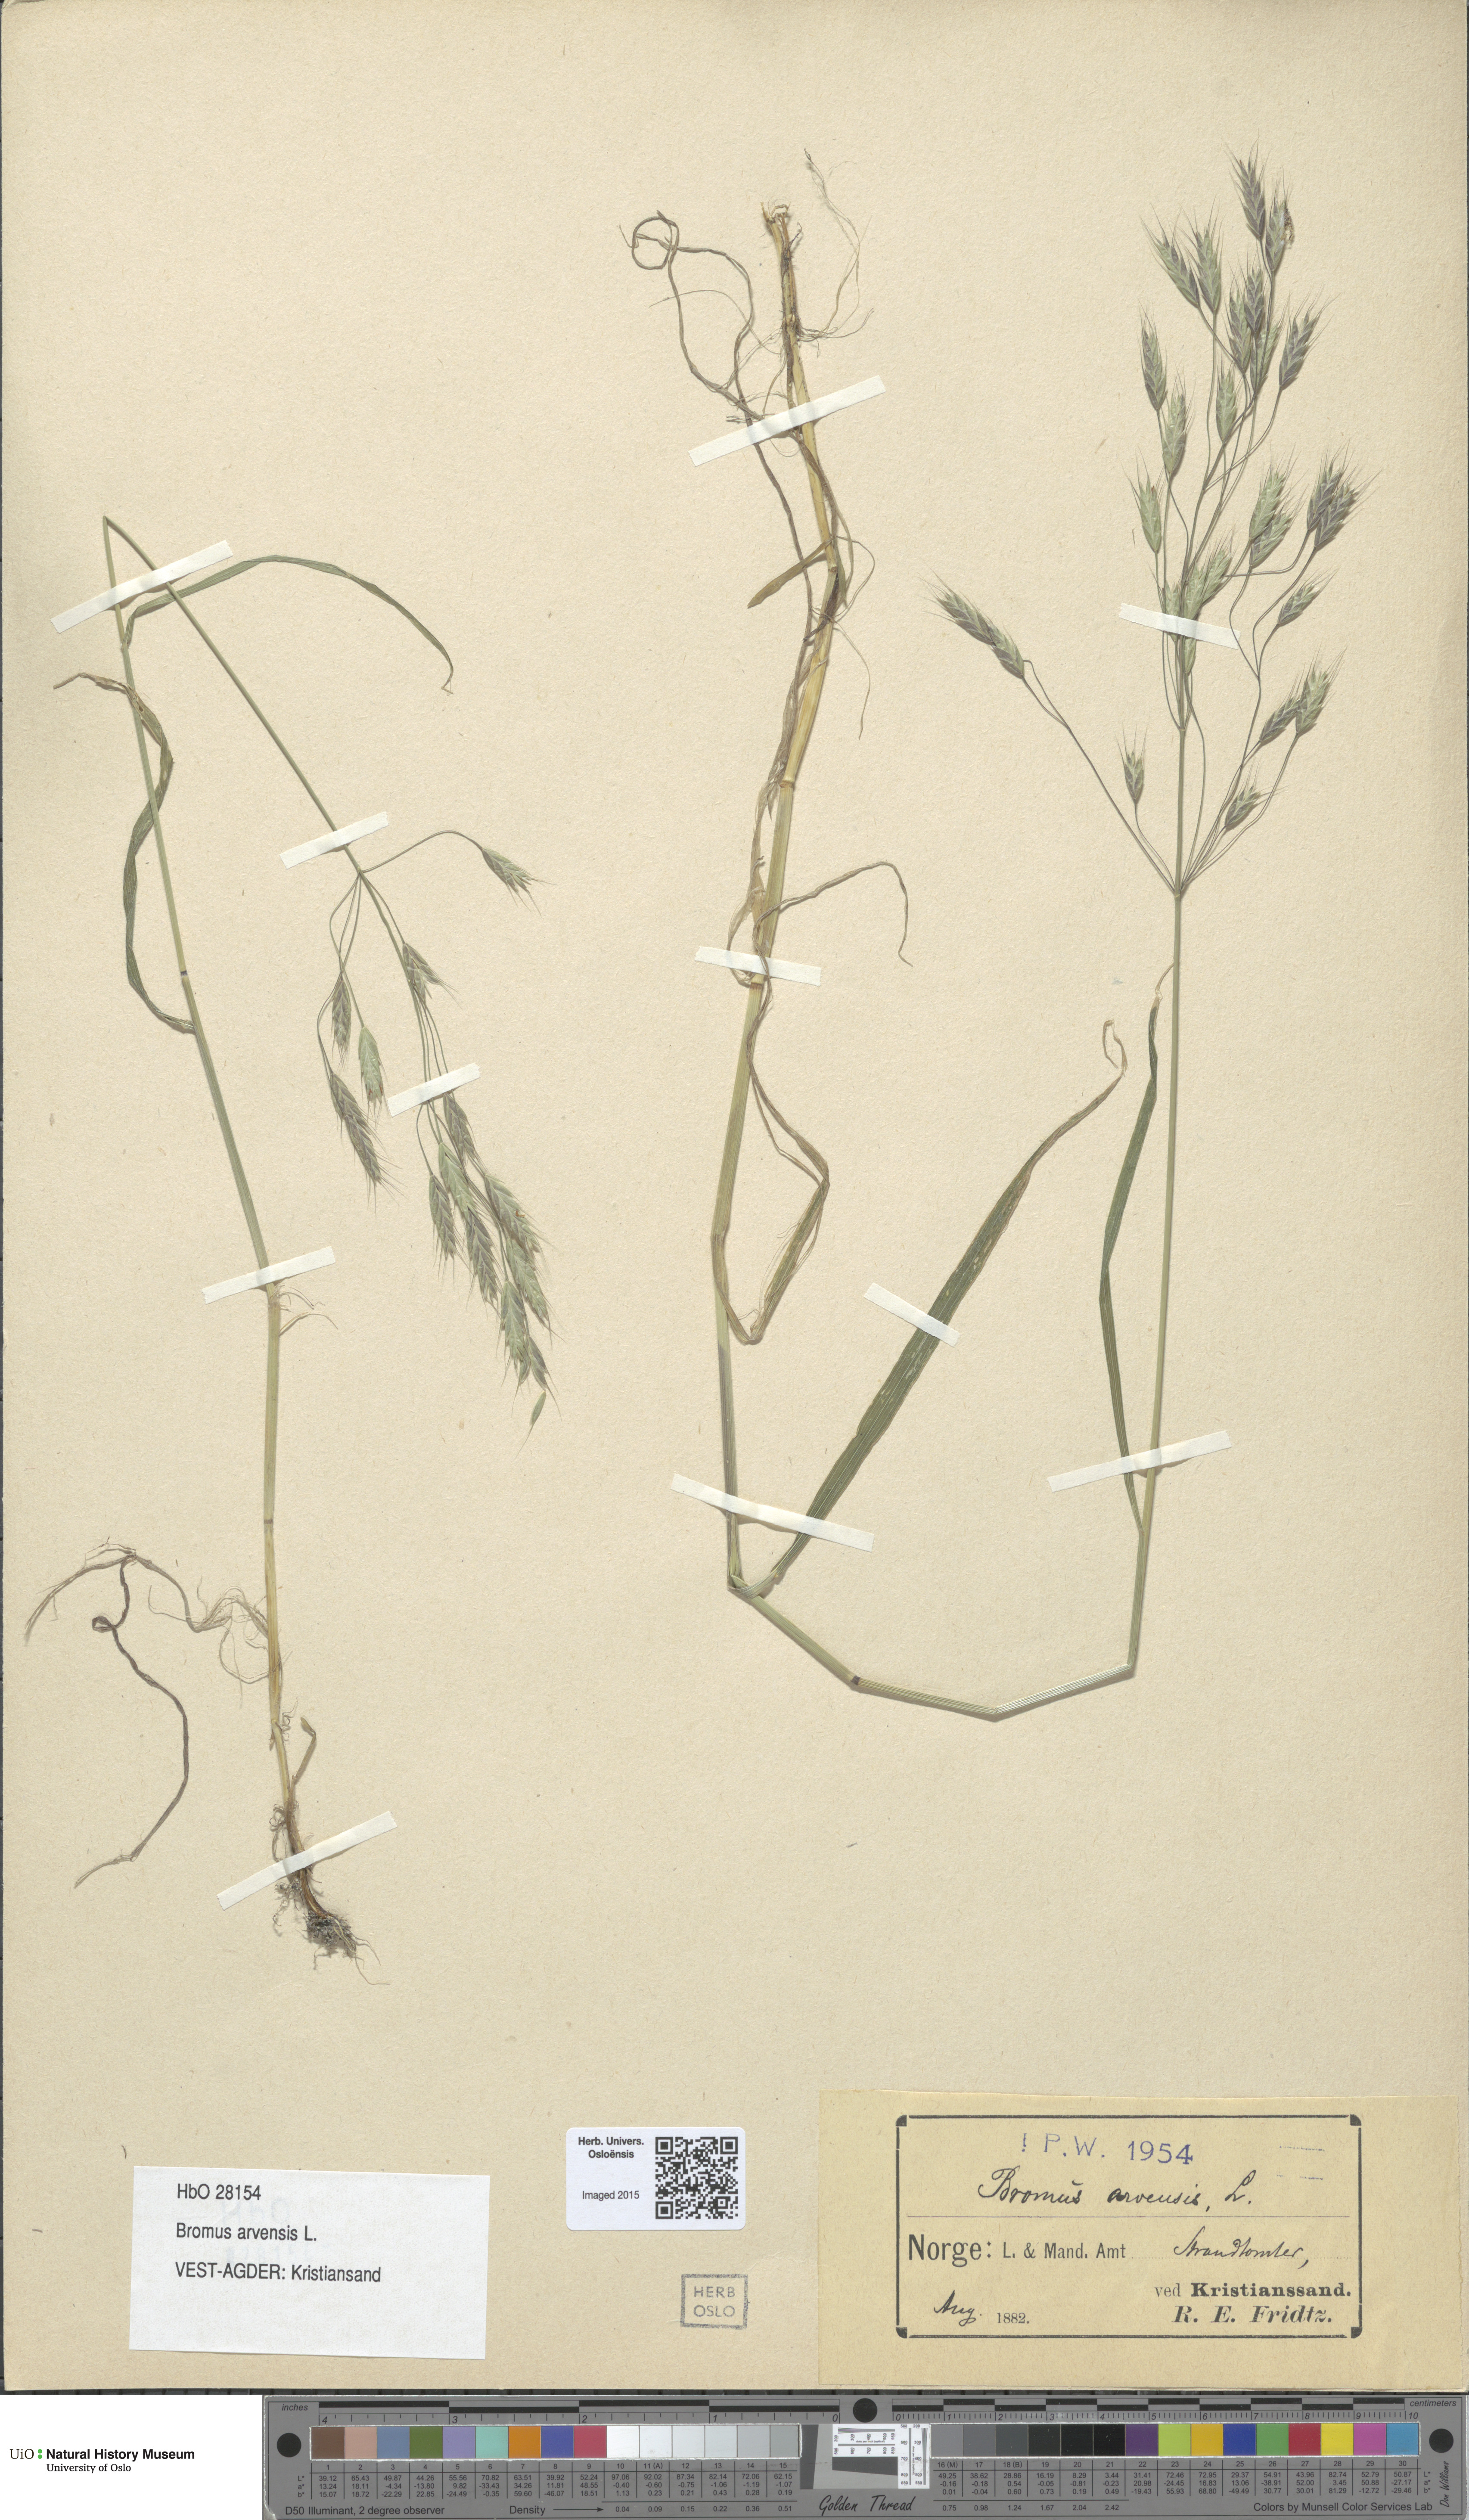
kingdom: Plantae
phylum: Tracheophyta
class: Liliopsida
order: Poales
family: Poaceae
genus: Bromus
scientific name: Bromus arvensis
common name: Field brome
